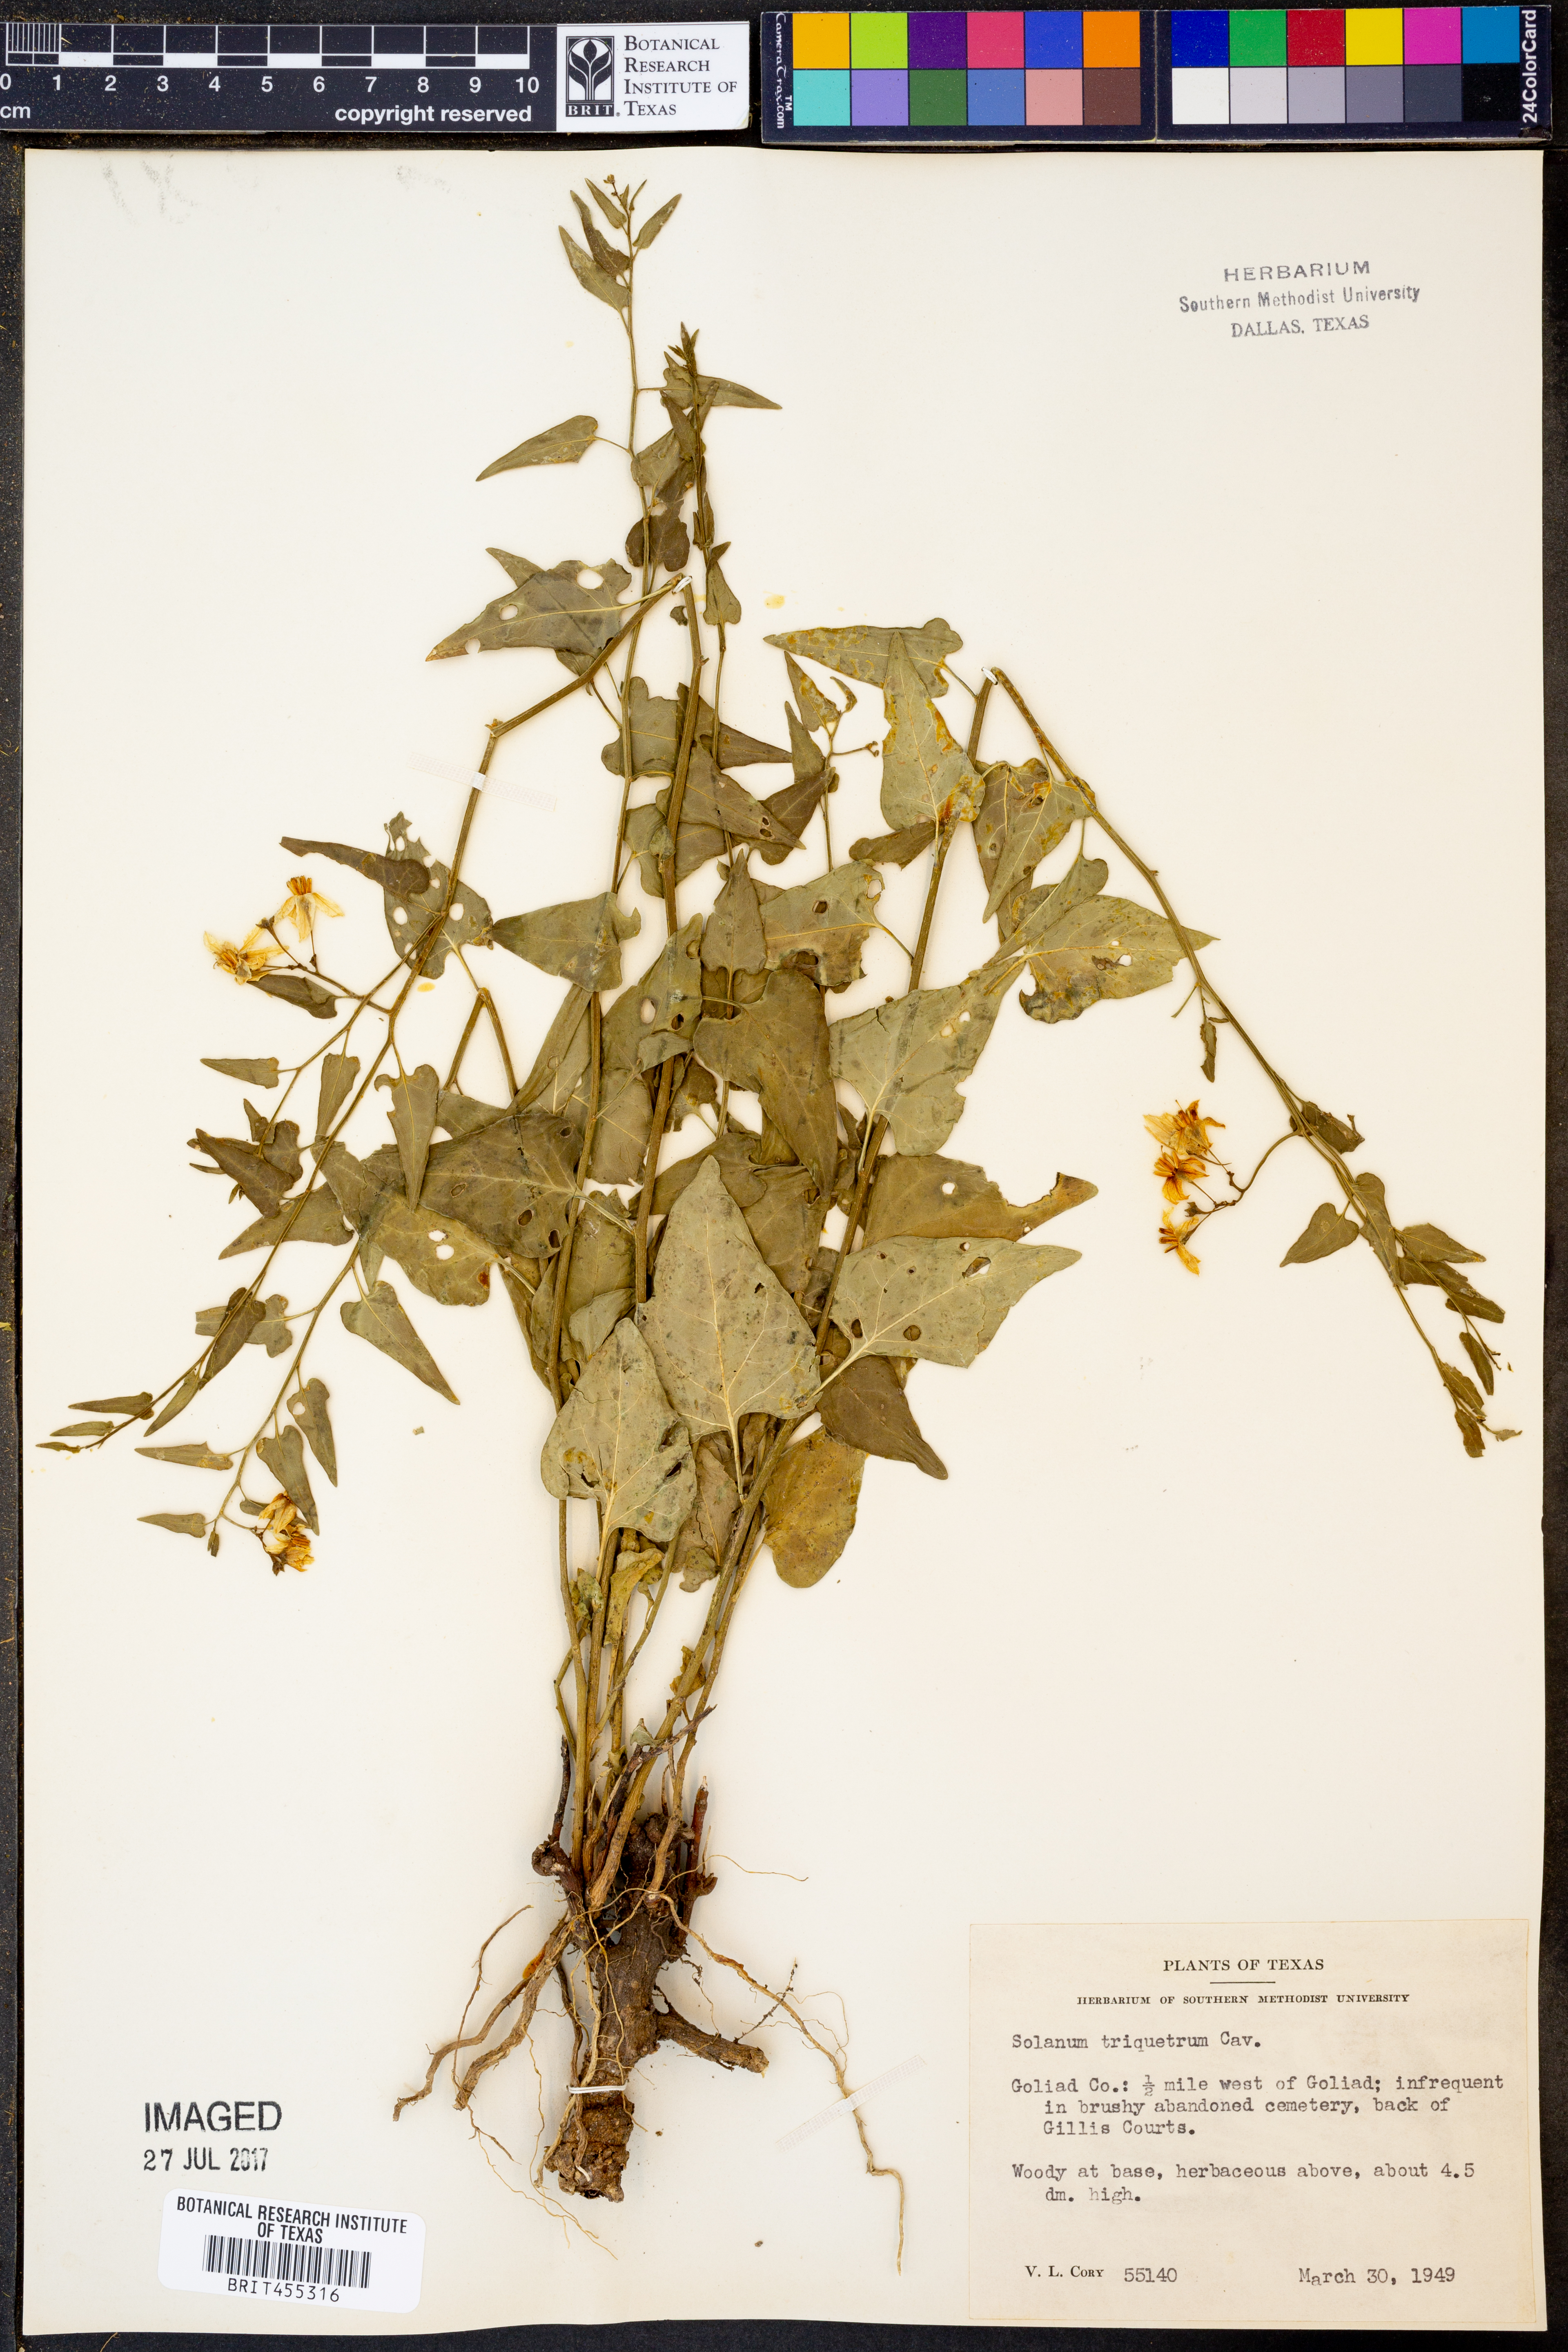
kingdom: Plantae
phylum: Tracheophyta
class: Magnoliopsida
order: Solanales
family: Solanaceae
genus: Solanum
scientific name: Solanum triquetrum
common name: Texas nightshade
